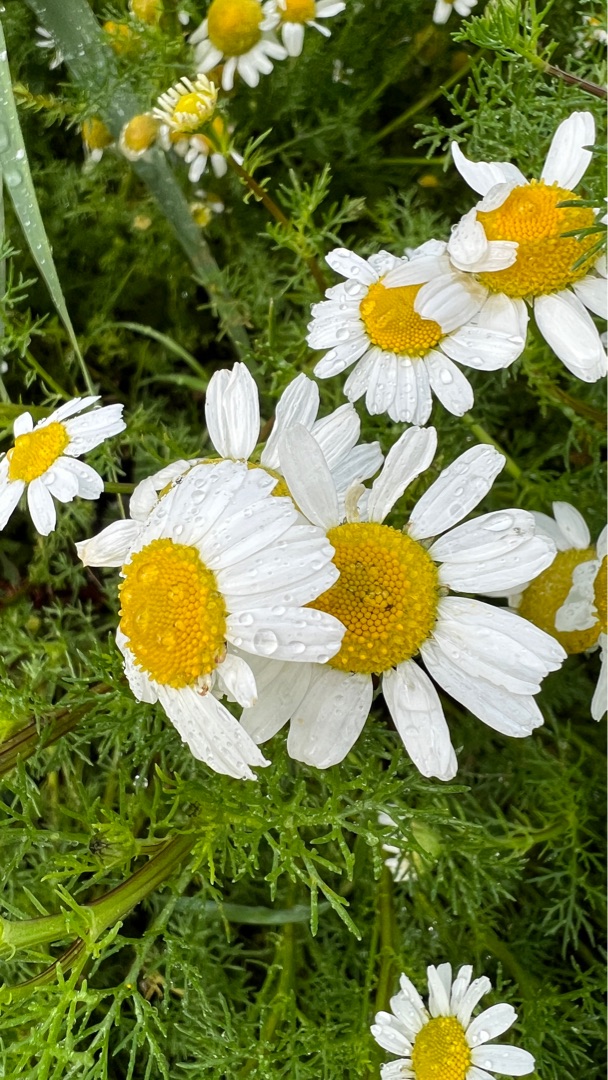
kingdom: Plantae
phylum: Tracheophyta
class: Magnoliopsida
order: Asterales
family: Asteraceae
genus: Tripleurospermum
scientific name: Tripleurospermum maritimum
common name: Strand-kamille
